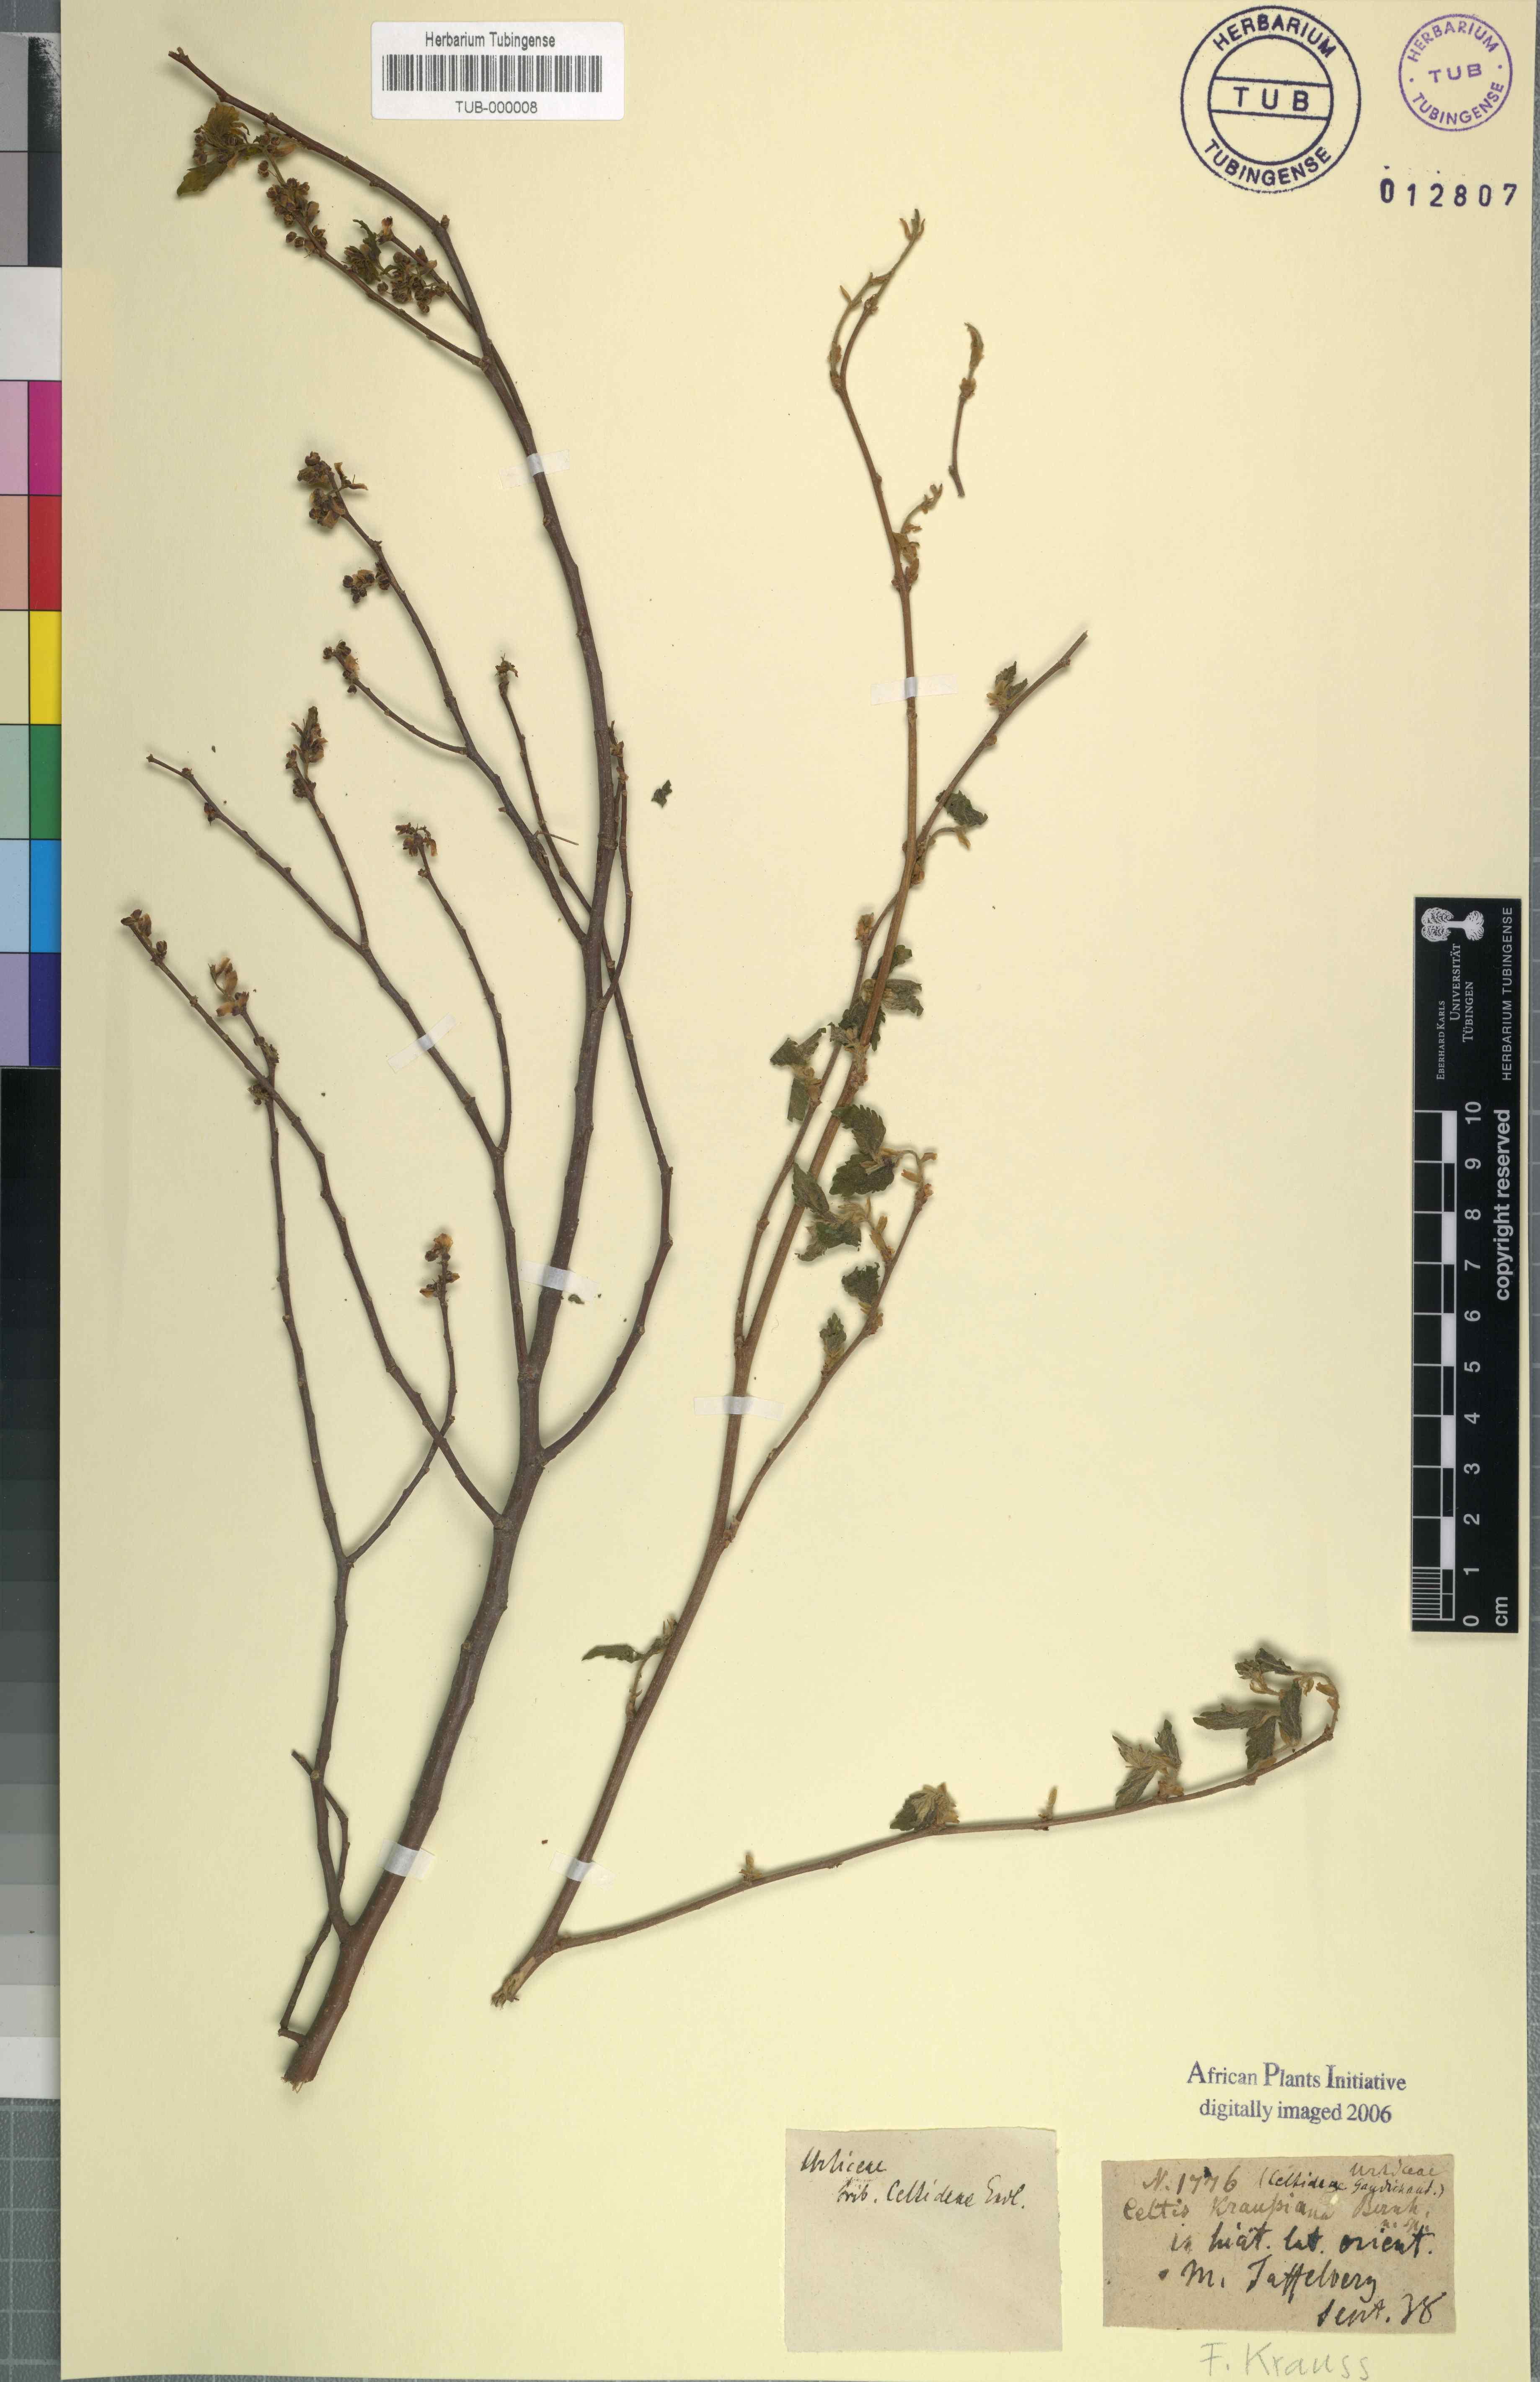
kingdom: Plantae
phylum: Tracheophyta
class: Magnoliopsida
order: Rosales
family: Cannabaceae
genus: Celtis
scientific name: Celtis africana
